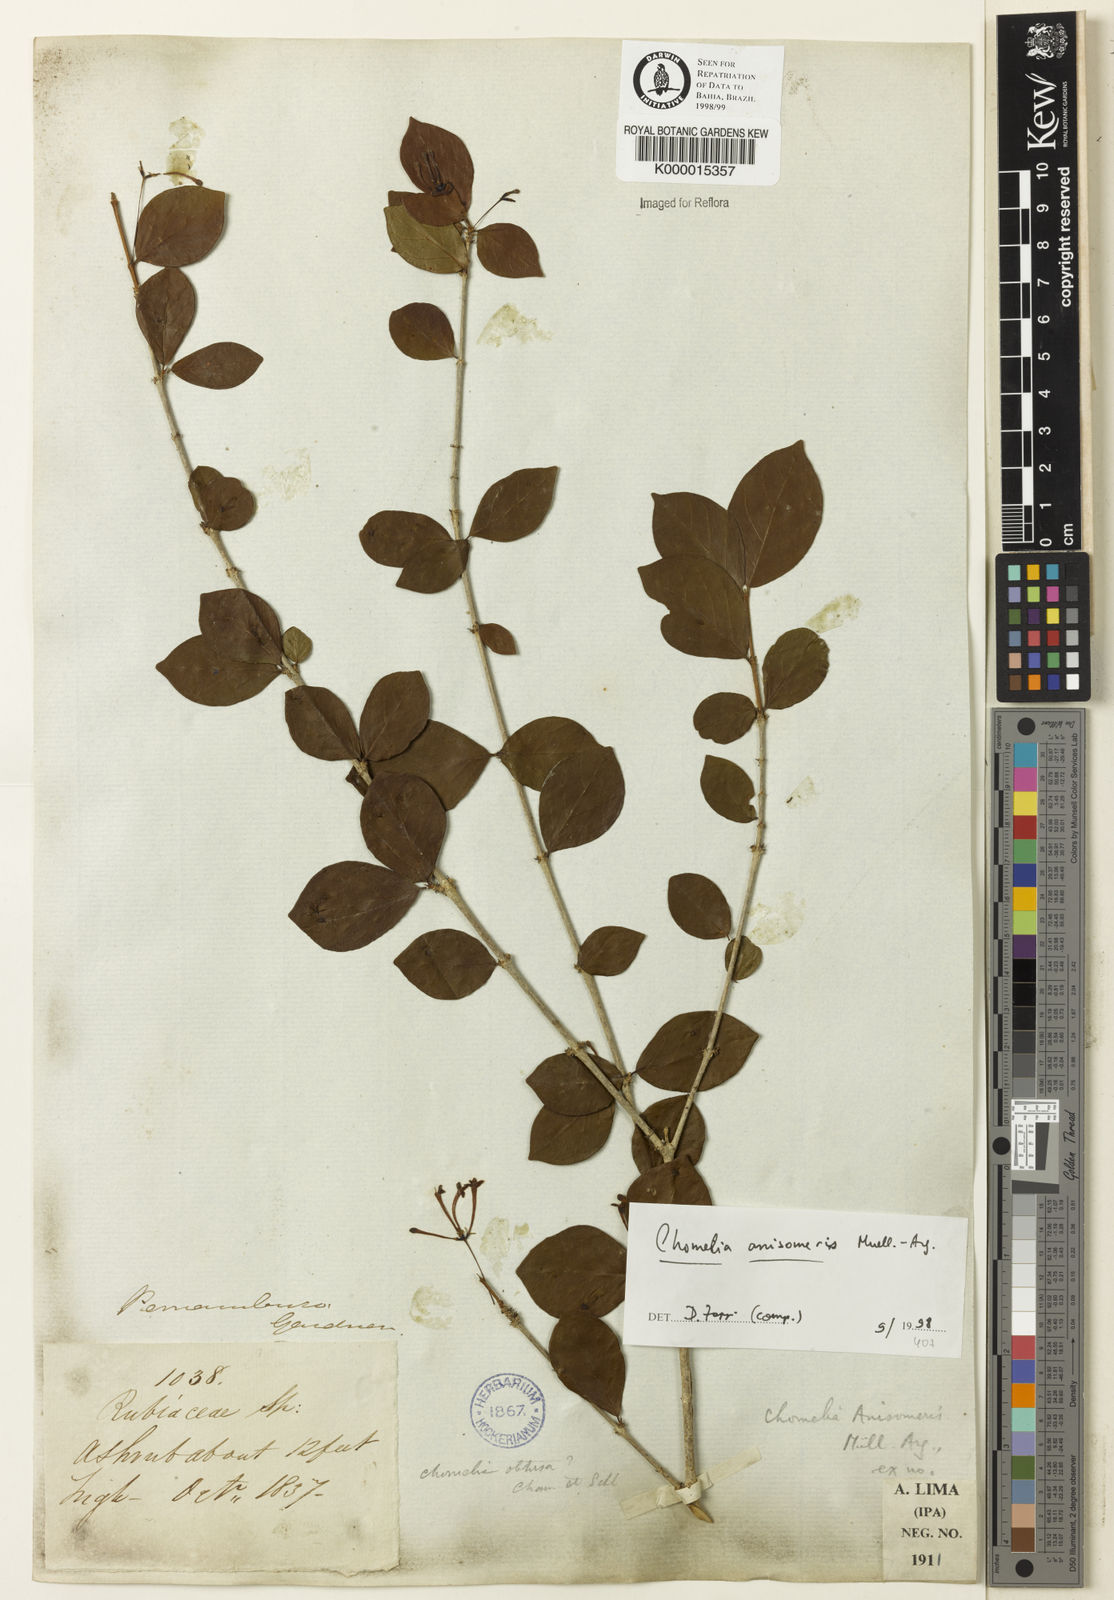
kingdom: Plantae
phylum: Tracheophyta
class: Magnoliopsida
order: Gentianales
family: Rubiaceae
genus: Chomelia
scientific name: Chomelia anisomeris
